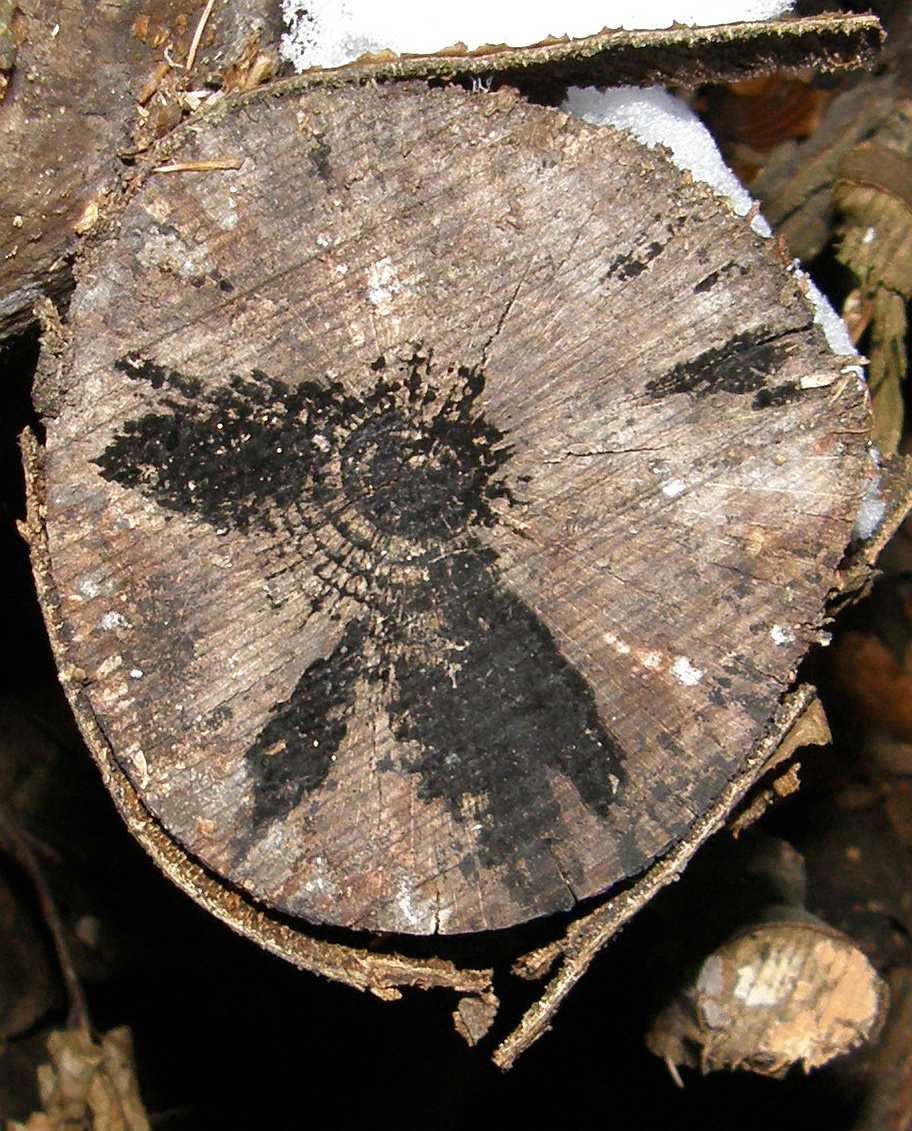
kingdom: Fungi
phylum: Ascomycota
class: Leotiomycetes
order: Helotiales
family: Helotiaceae
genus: Bispora
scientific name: Bispora pallescens
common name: måtte-snitskive
